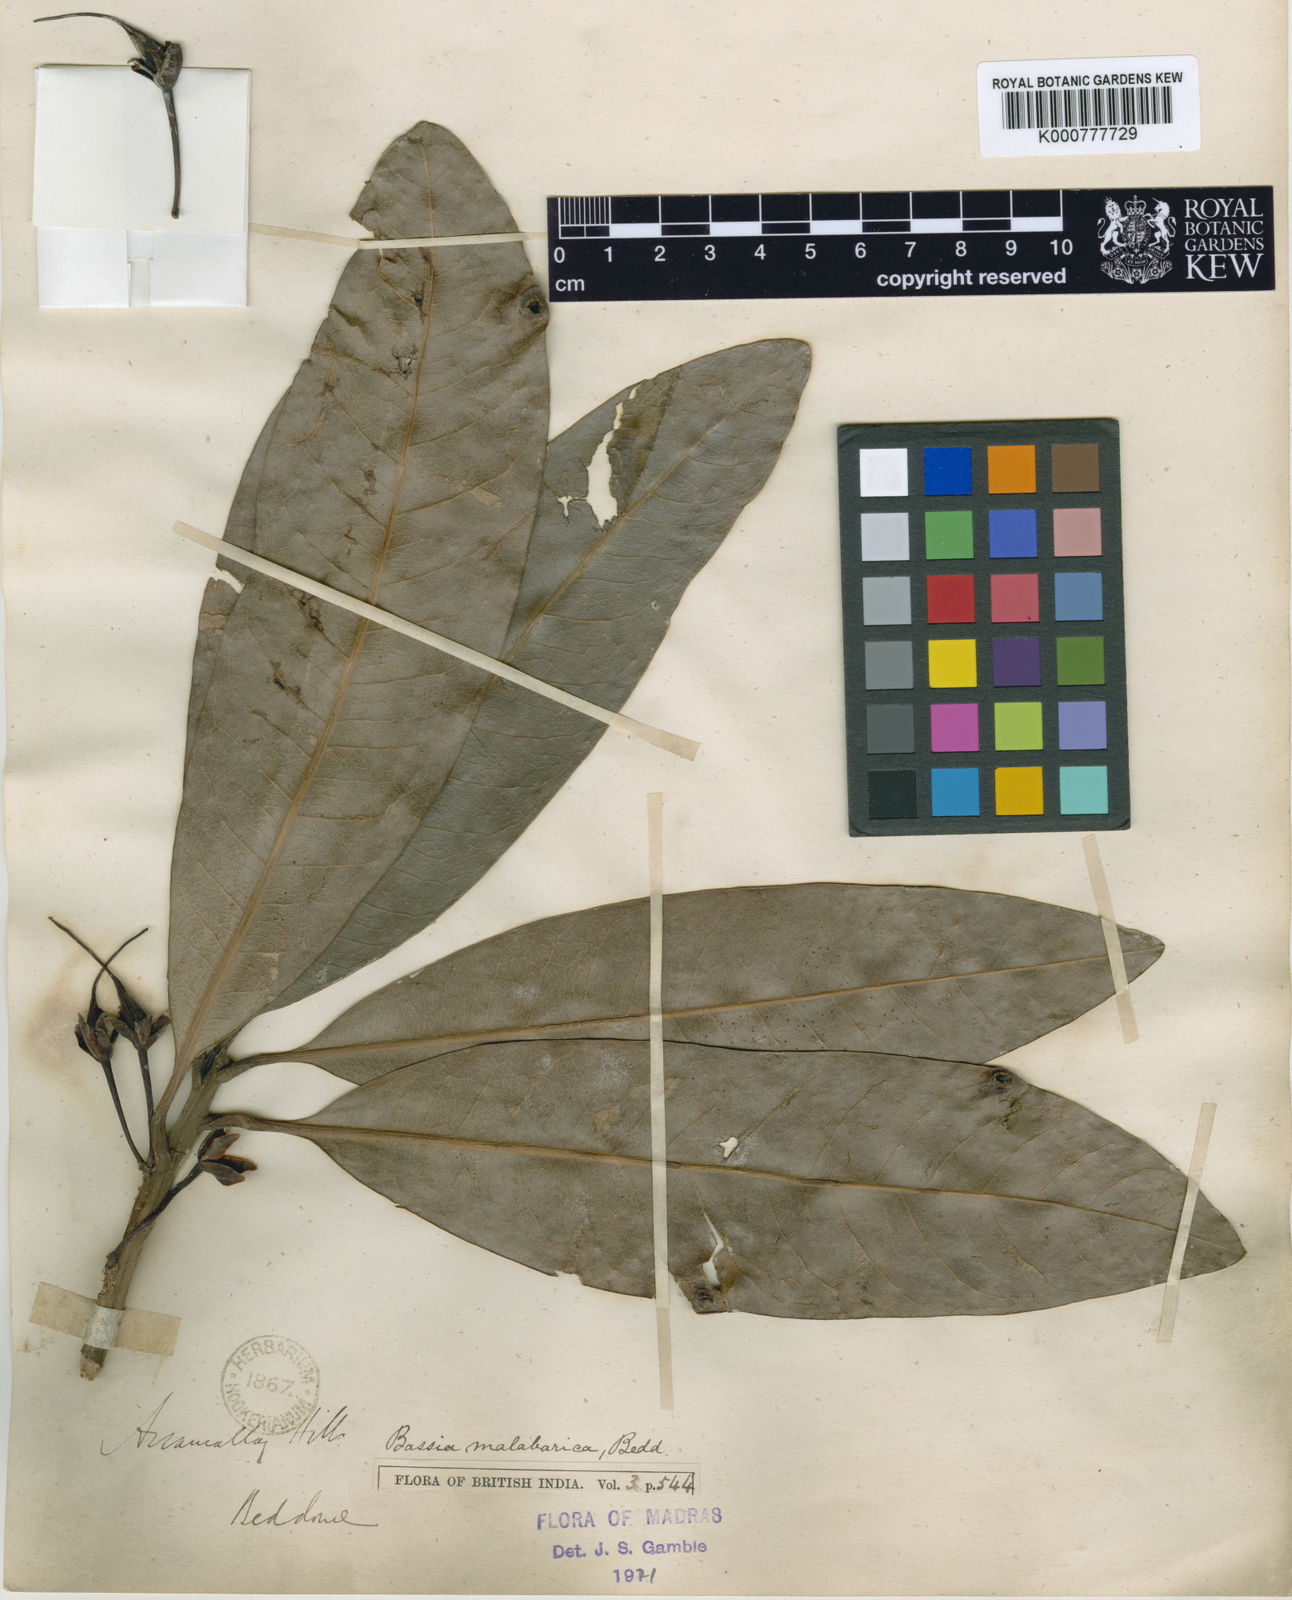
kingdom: Plantae
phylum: Tracheophyta
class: Magnoliopsida
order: Ericales
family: Sapotaceae
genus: Madhuca
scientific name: Madhuca neriifolia
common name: Illipe butter tree
